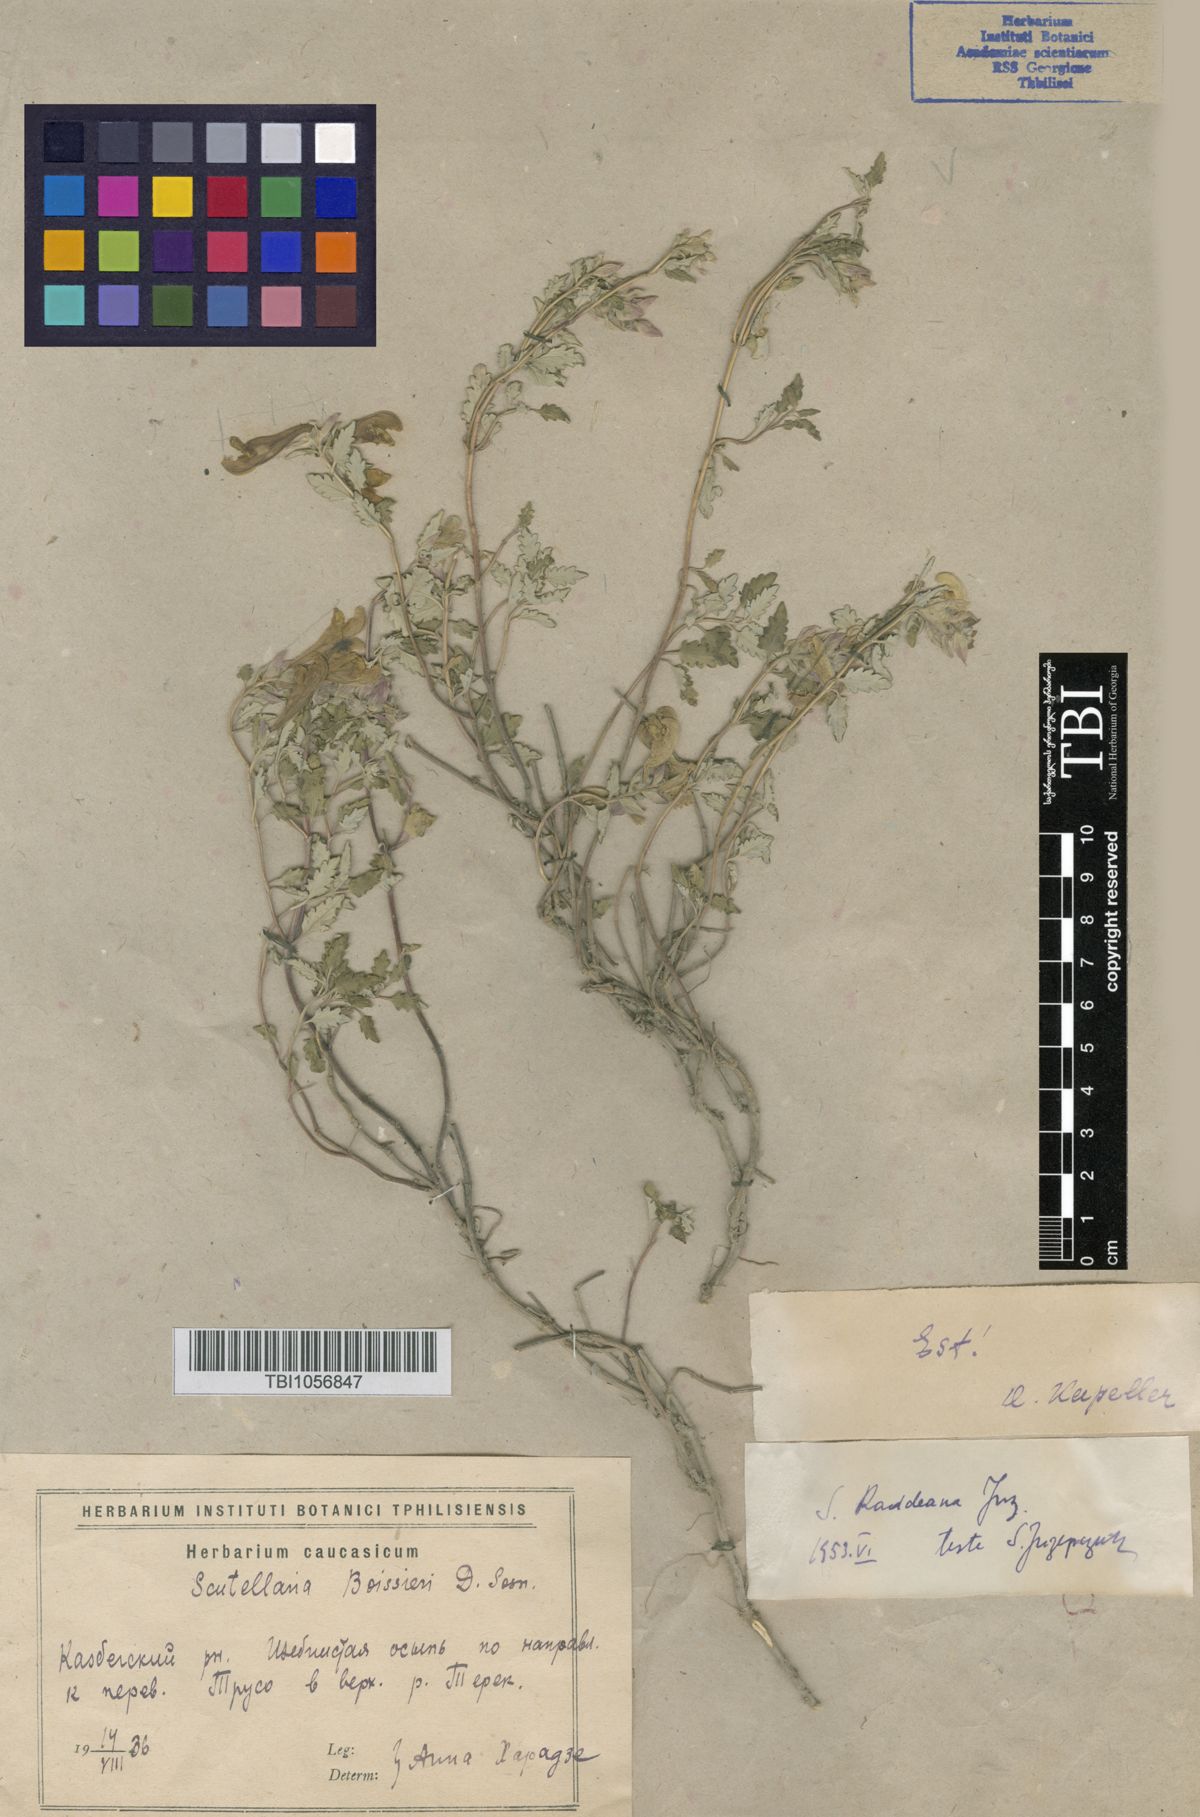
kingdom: Plantae
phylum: Tracheophyta
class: Magnoliopsida
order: Lamiales
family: Lamiaceae
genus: Scutellaria
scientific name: Scutellaria raddeana
